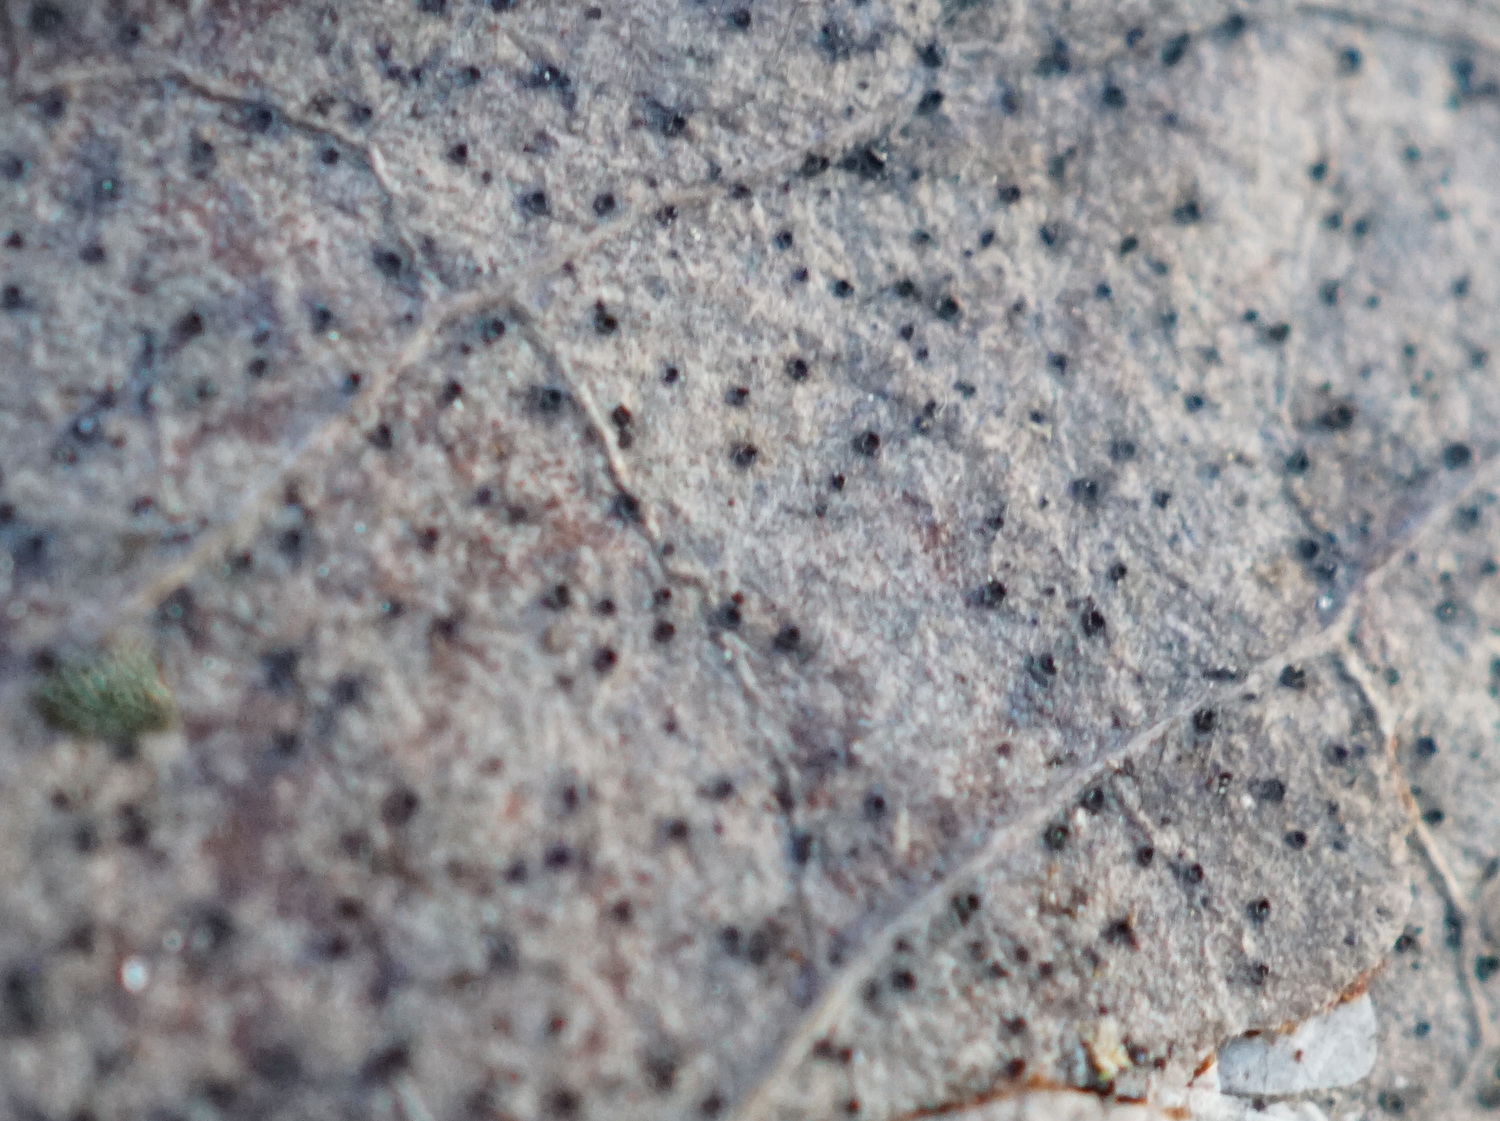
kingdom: Fungi
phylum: Ascomycota
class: Leotiomycetes
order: Helotiales
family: Cenangiaceae
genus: Trochila
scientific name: Trochila laurocerasi
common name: kirsebær-lågskive
